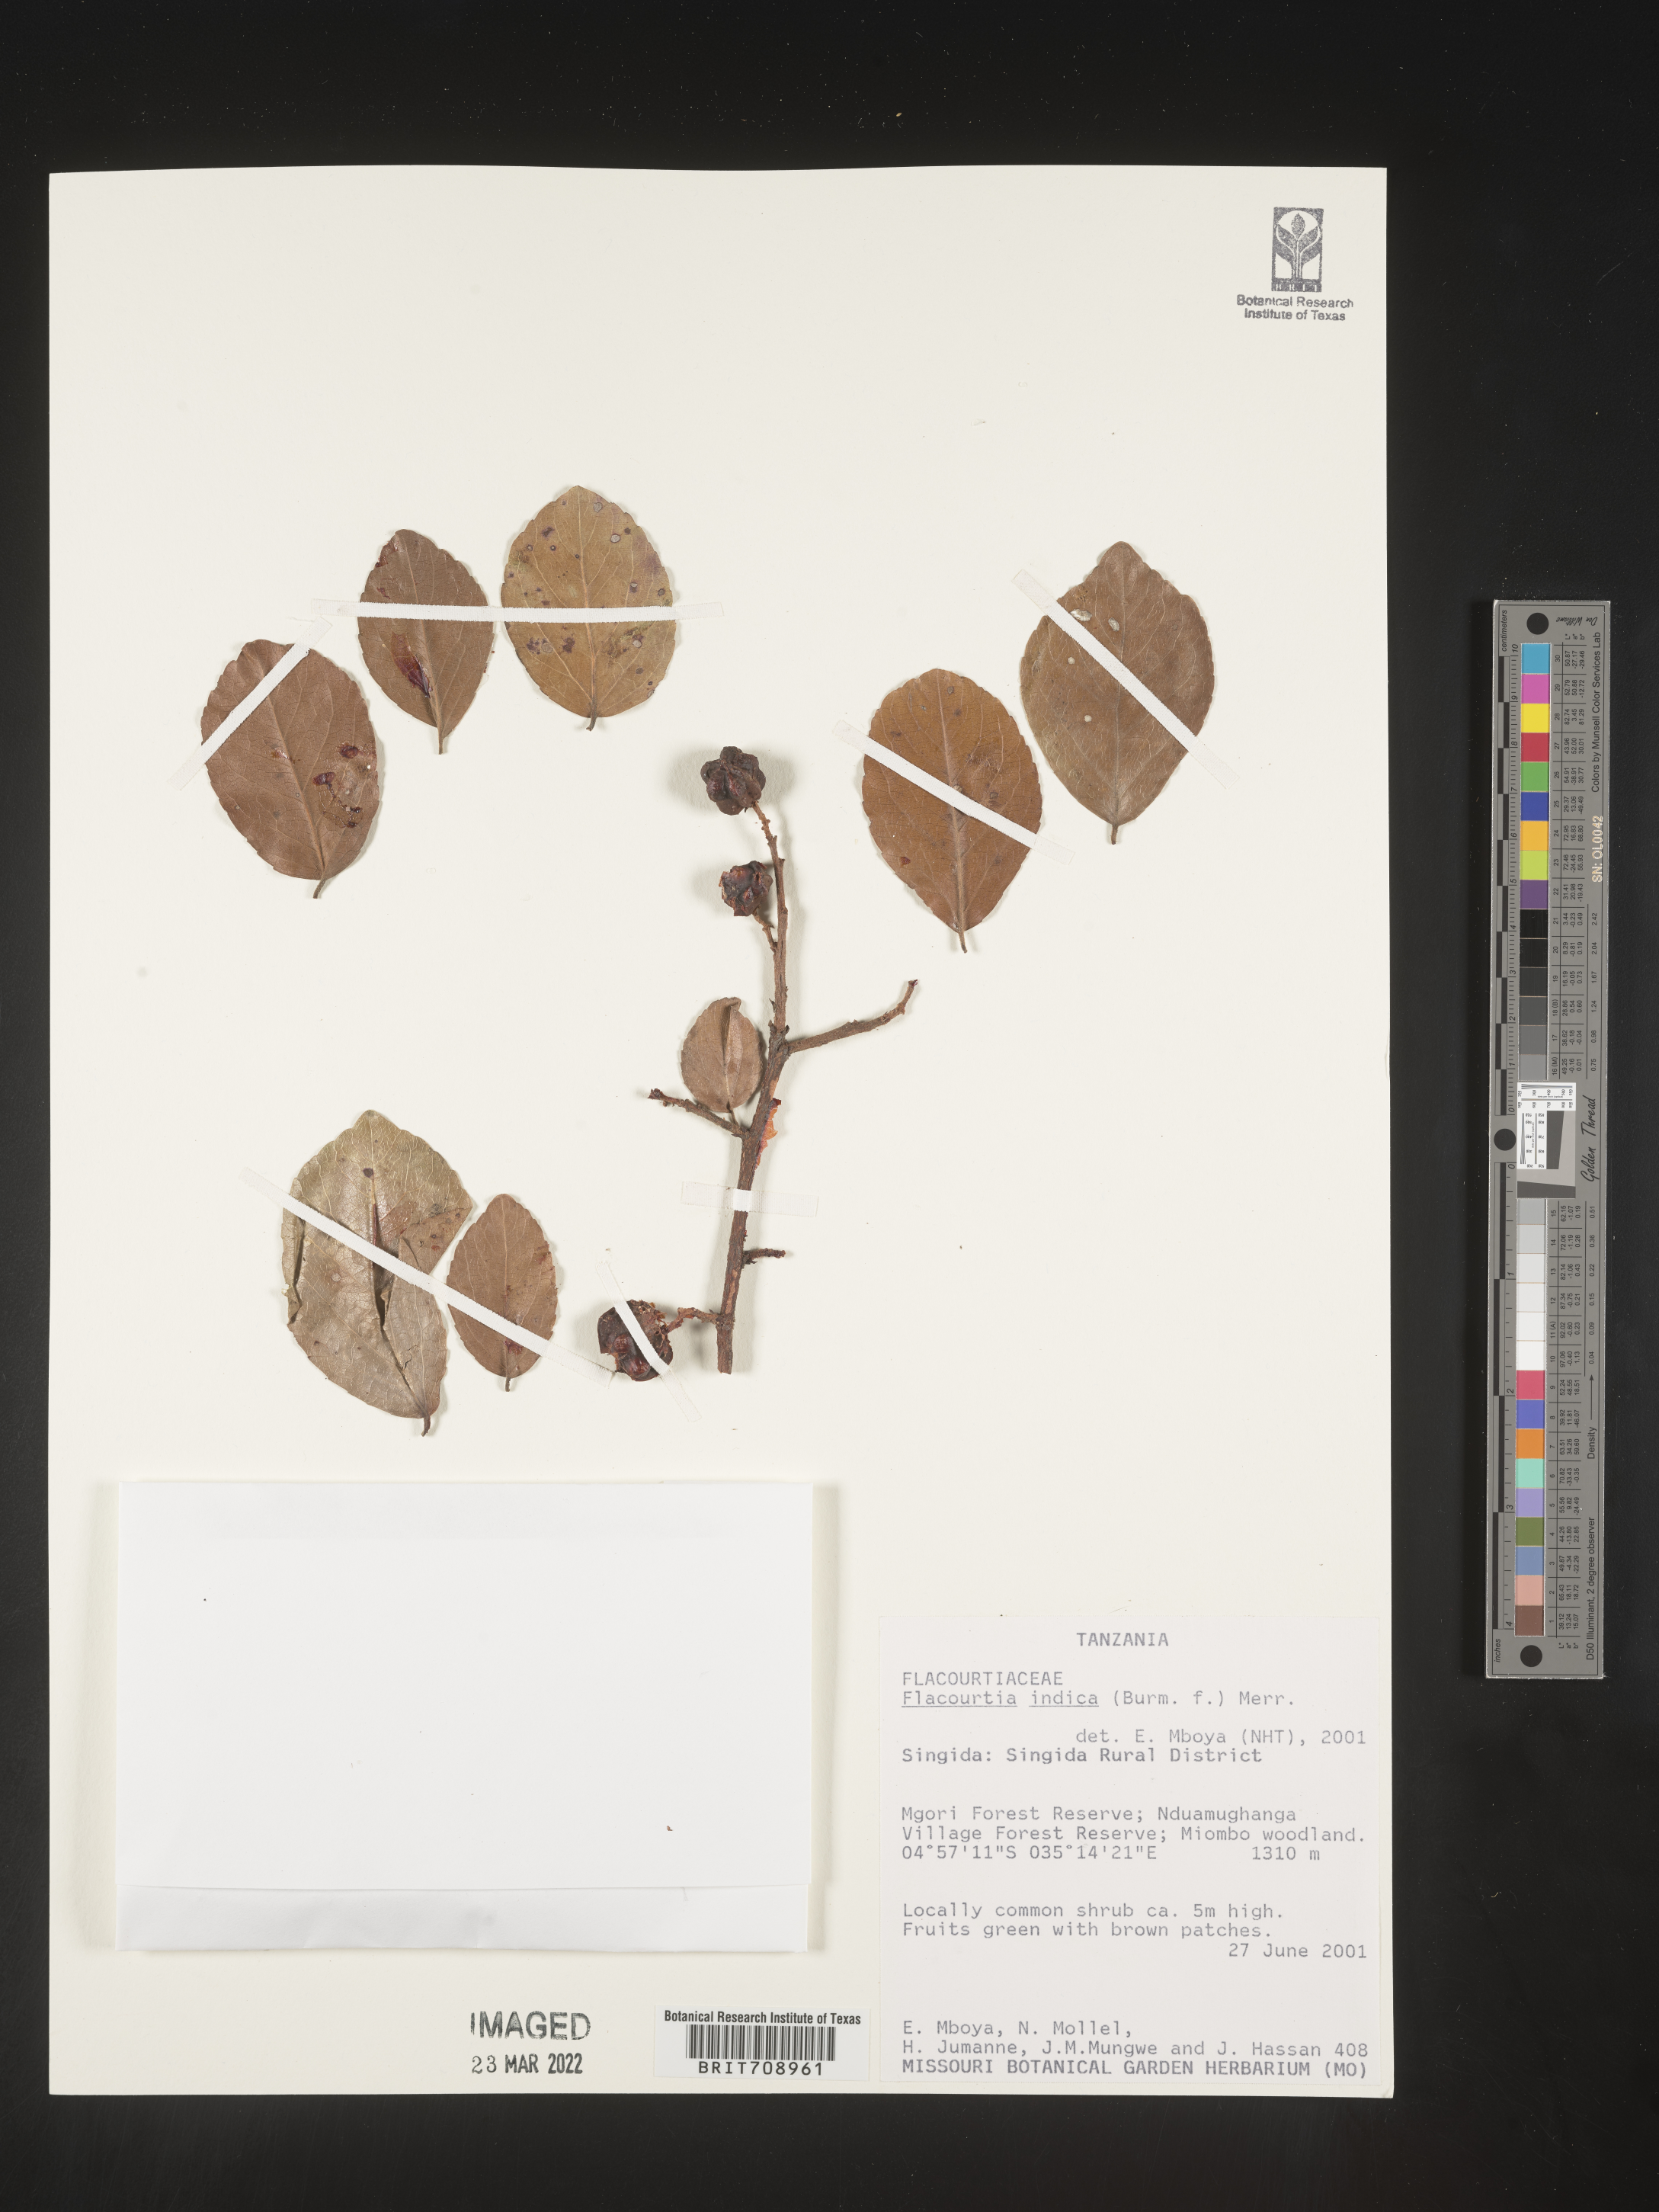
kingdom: Plantae
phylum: Tracheophyta
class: Magnoliopsida
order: Malpighiales
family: Salicaceae
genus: Flacourtia
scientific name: Flacourtia
